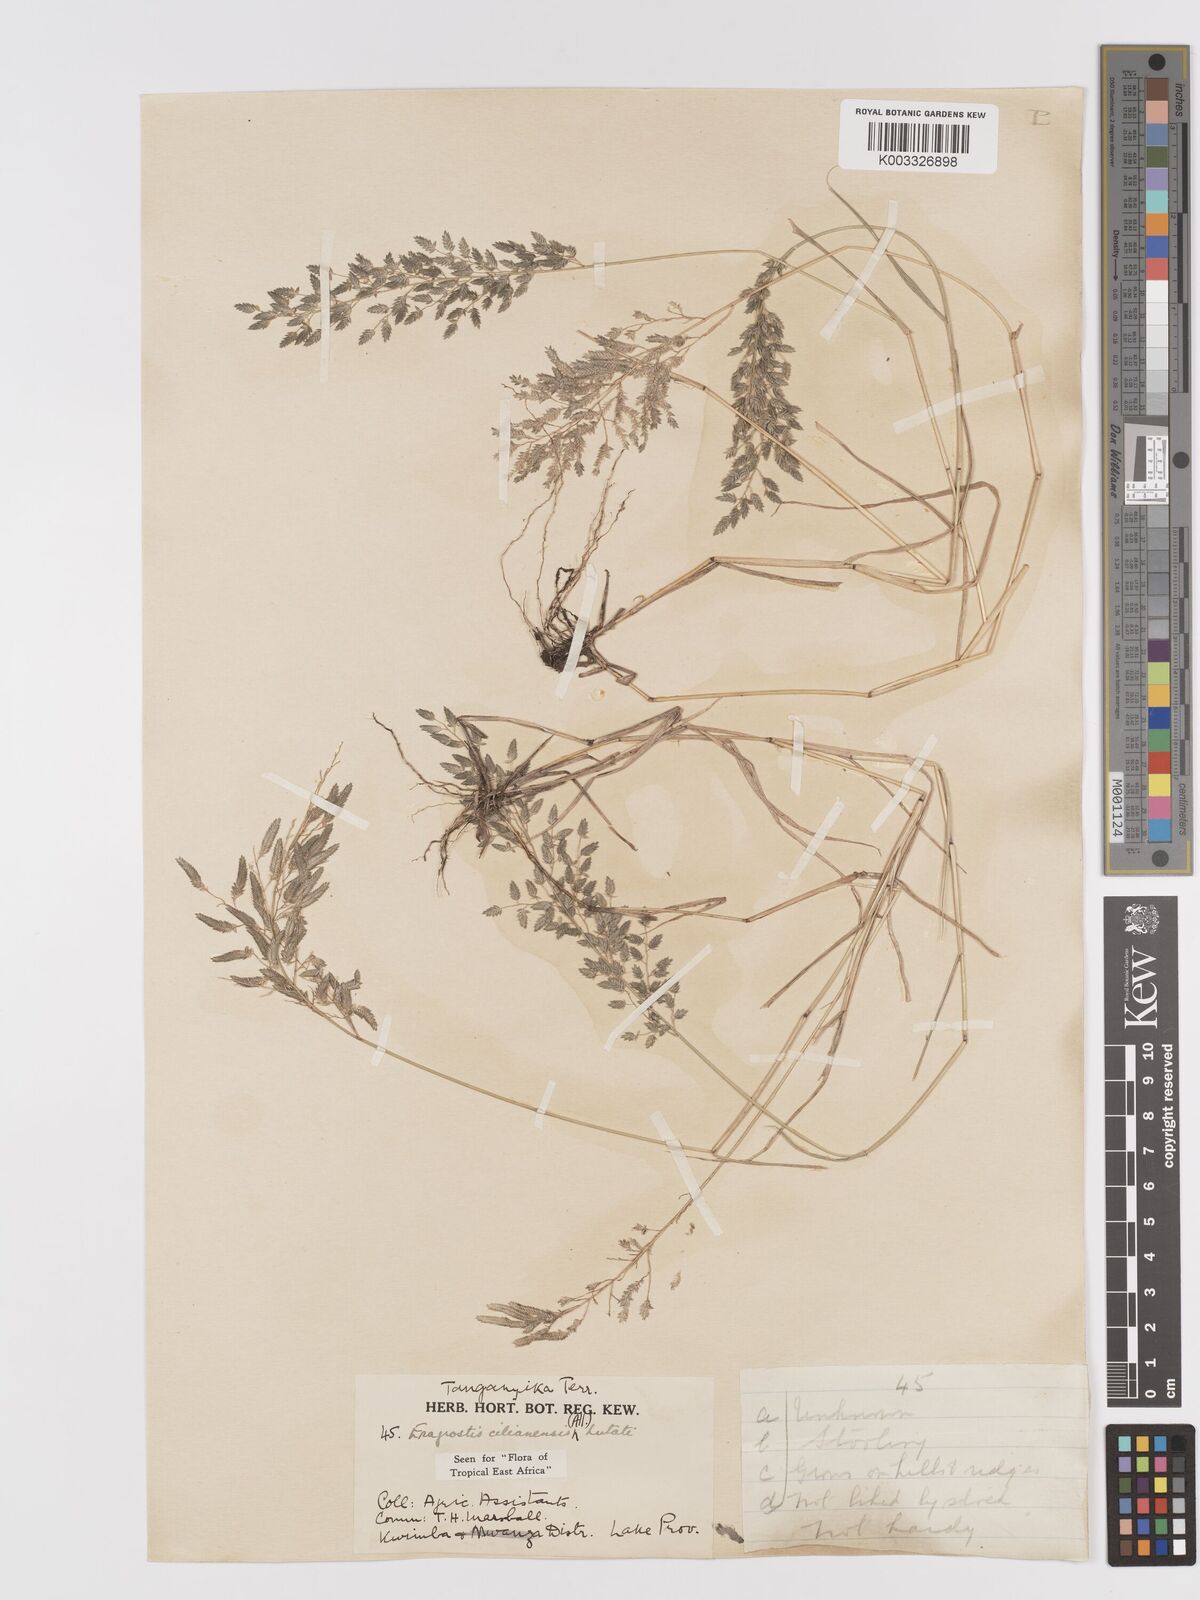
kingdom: Plantae
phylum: Tracheophyta
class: Liliopsida
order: Poales
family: Poaceae
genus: Eragrostis
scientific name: Eragrostis cilianensis
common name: Stinkgrass
